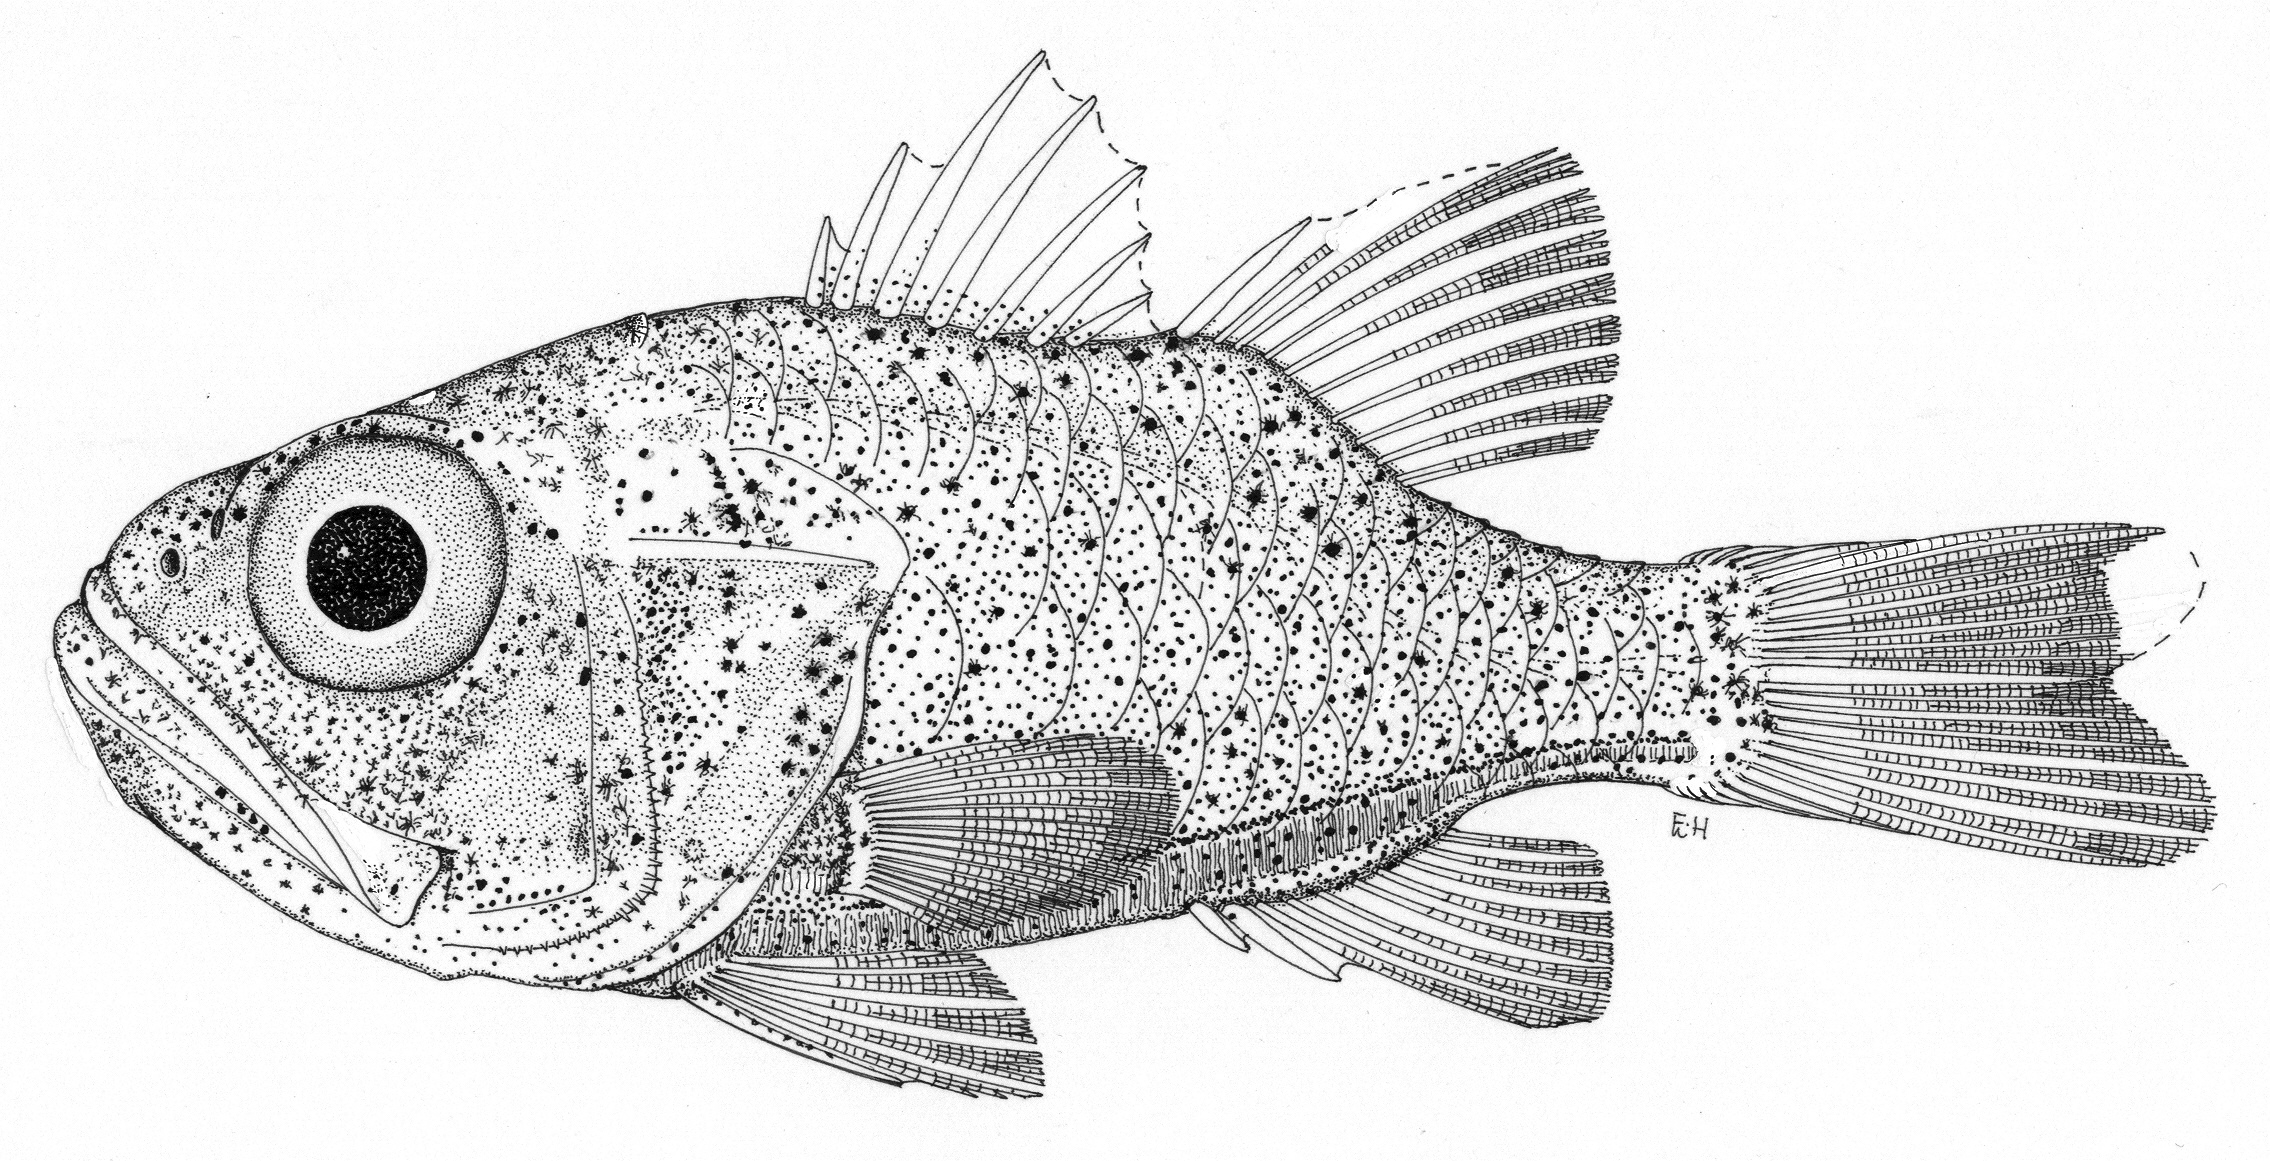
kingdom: Animalia
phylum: Chordata
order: Perciformes
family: Apogonidae
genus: Siphamia
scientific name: Siphamia tubifer
